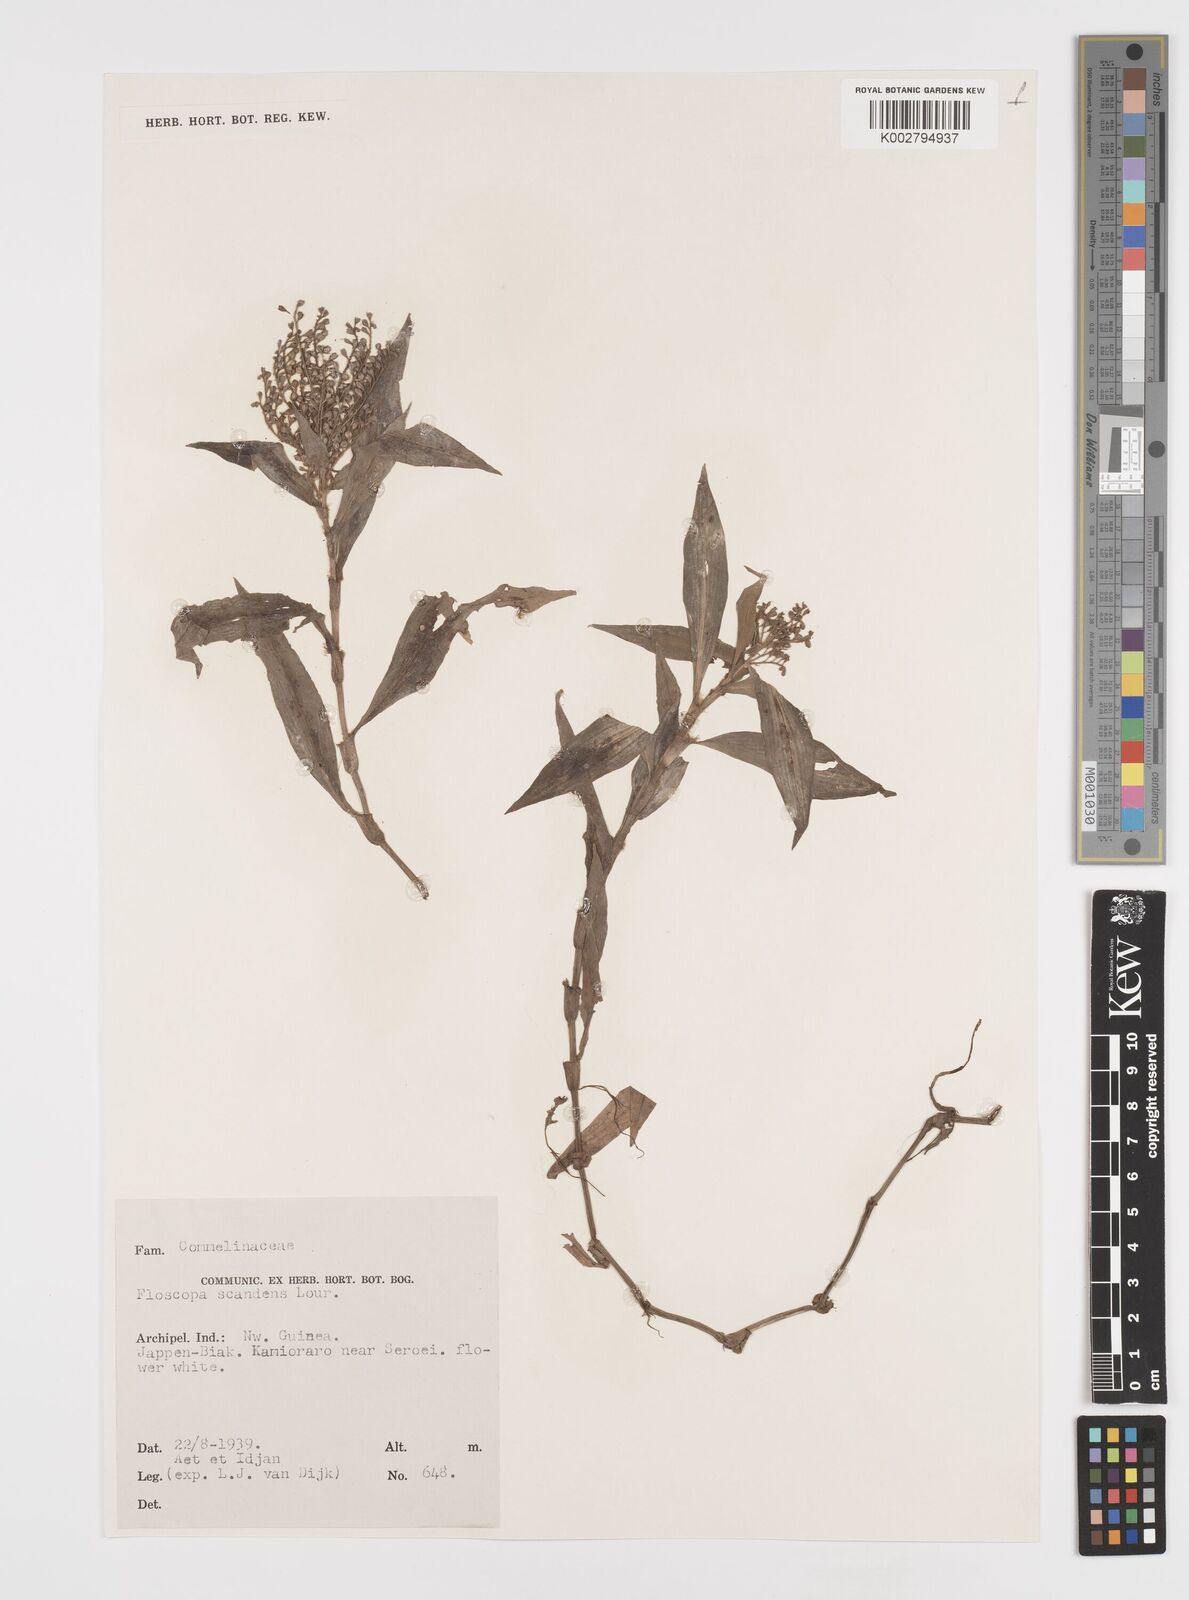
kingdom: Plantae
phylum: Tracheophyta
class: Liliopsida
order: Commelinales
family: Commelinaceae
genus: Floscopa
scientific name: Floscopa scandens
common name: Climbing flower cup
